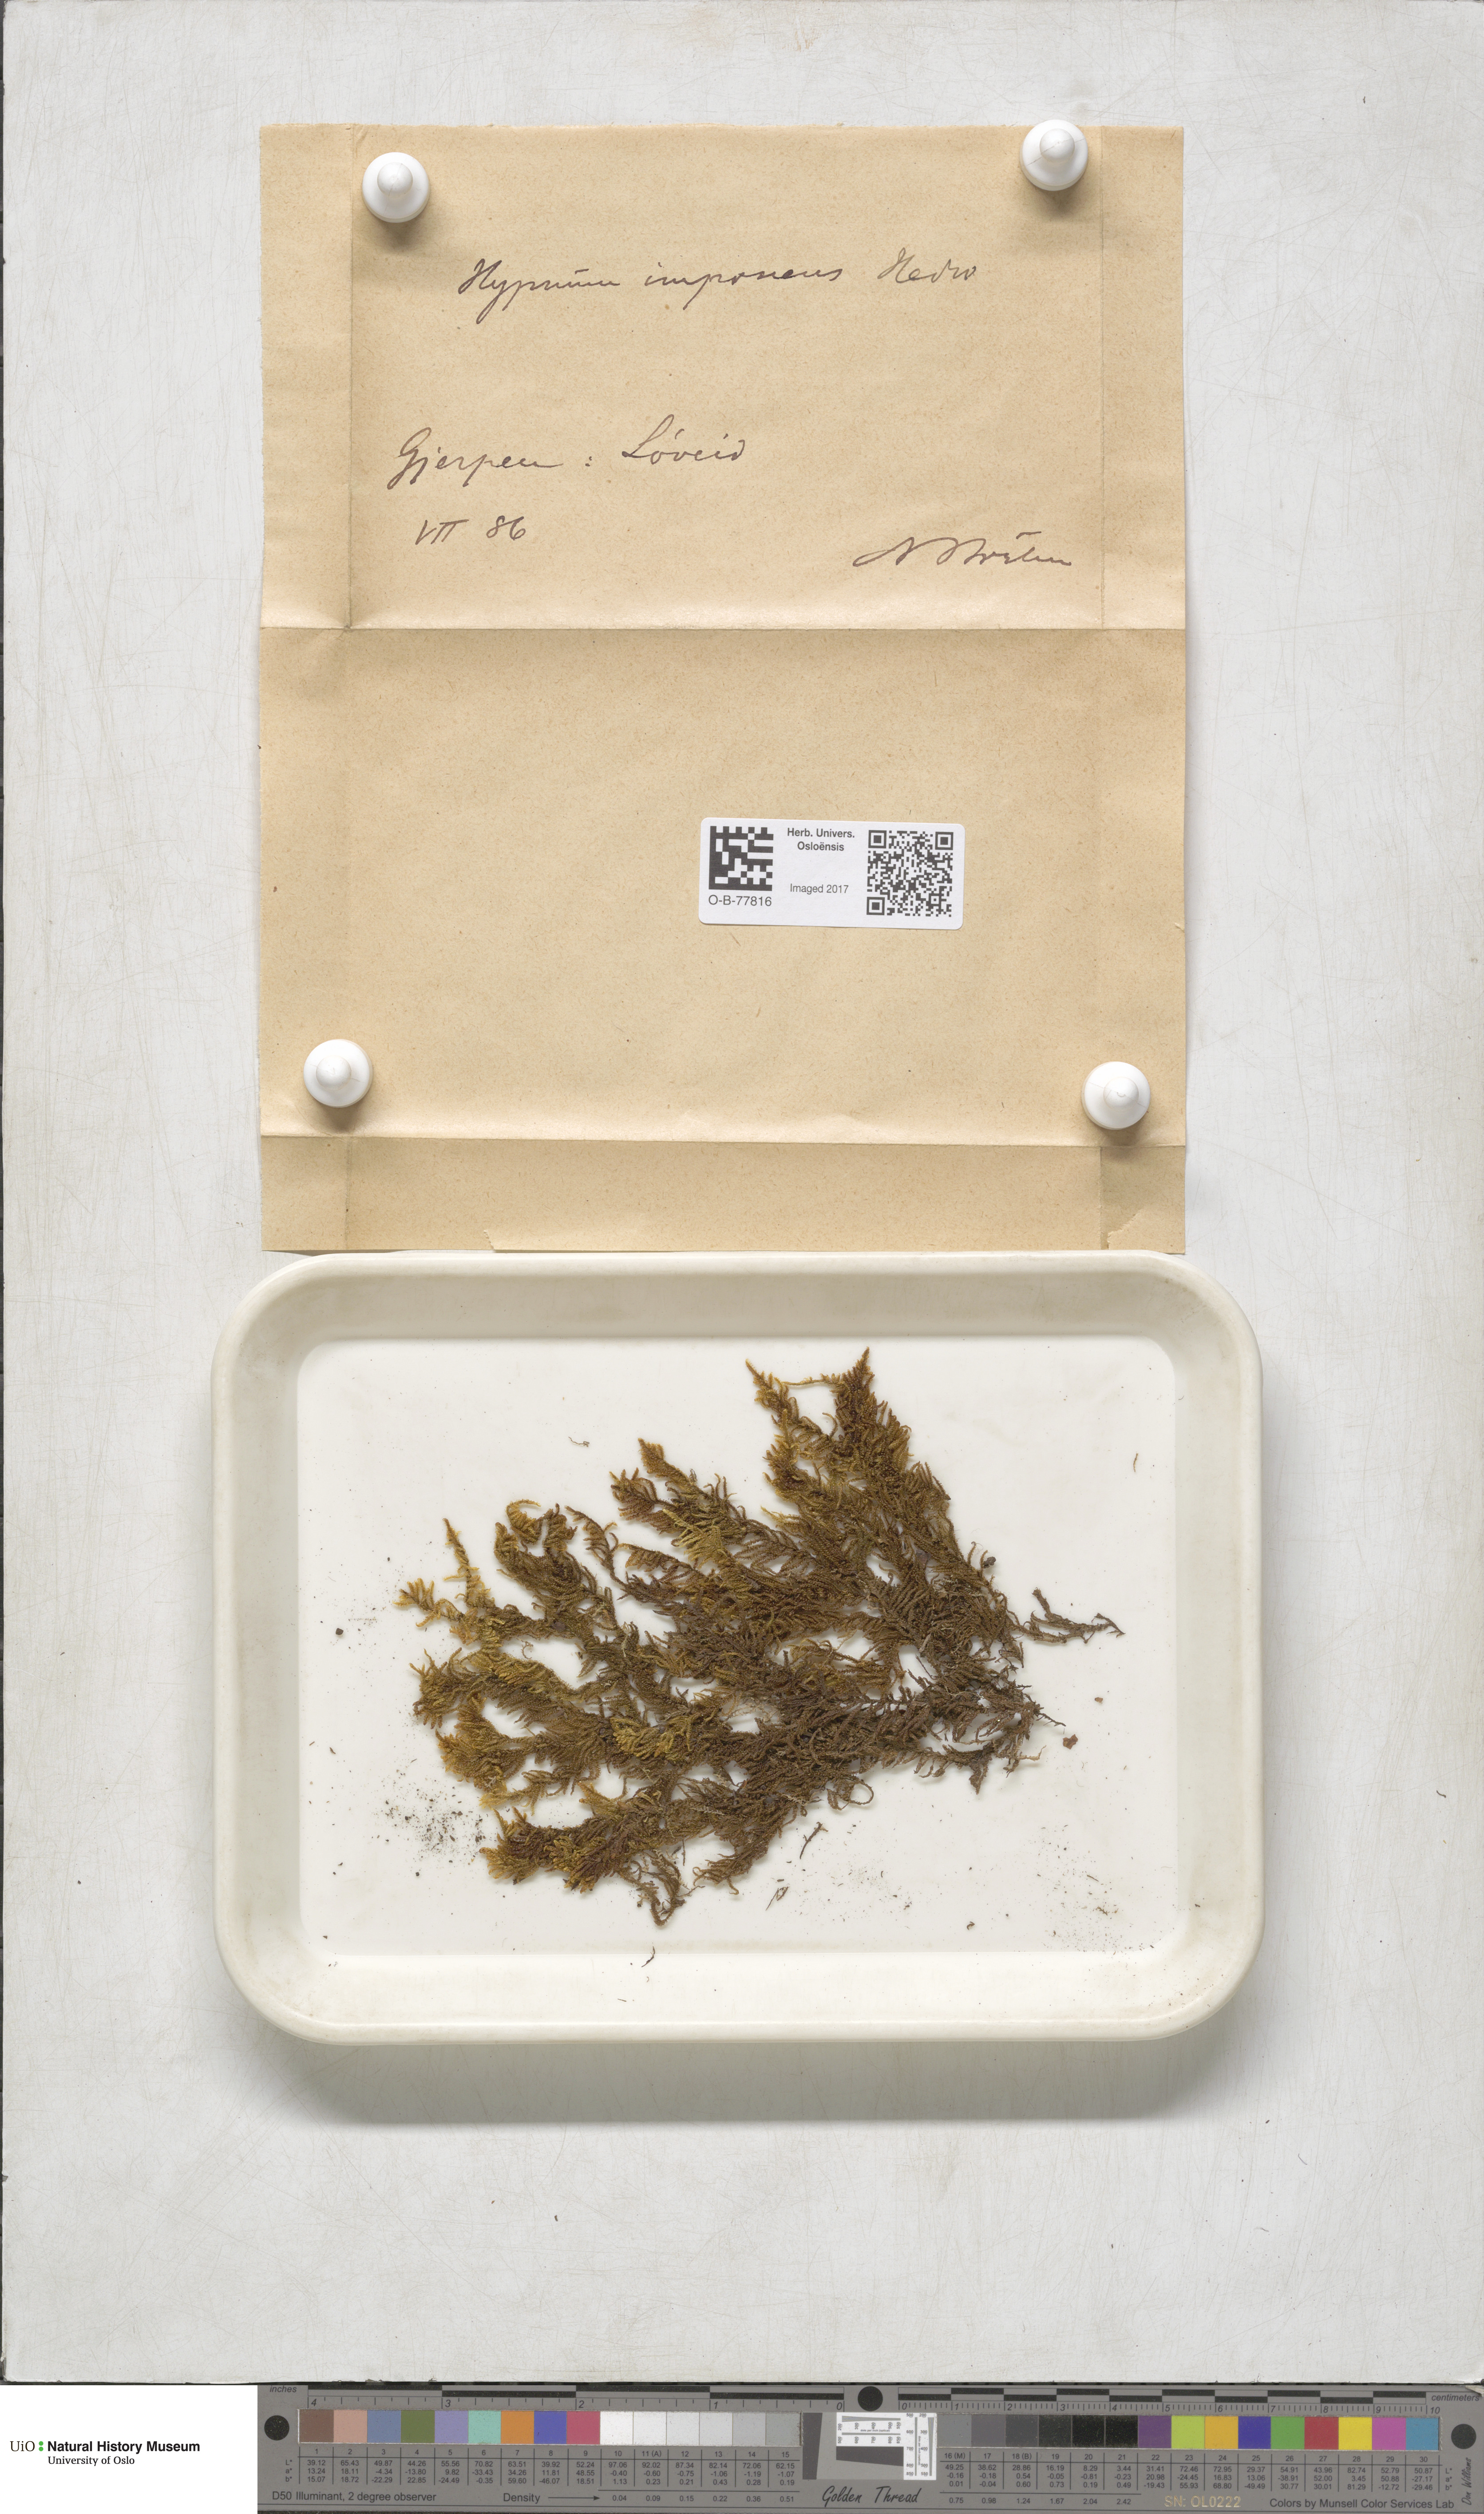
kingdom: Plantae
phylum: Bryophyta
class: Bryopsida
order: Hypnales
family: Callicladiaceae
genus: Callicladium
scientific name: Callicladium imponens
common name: Brocade moss
